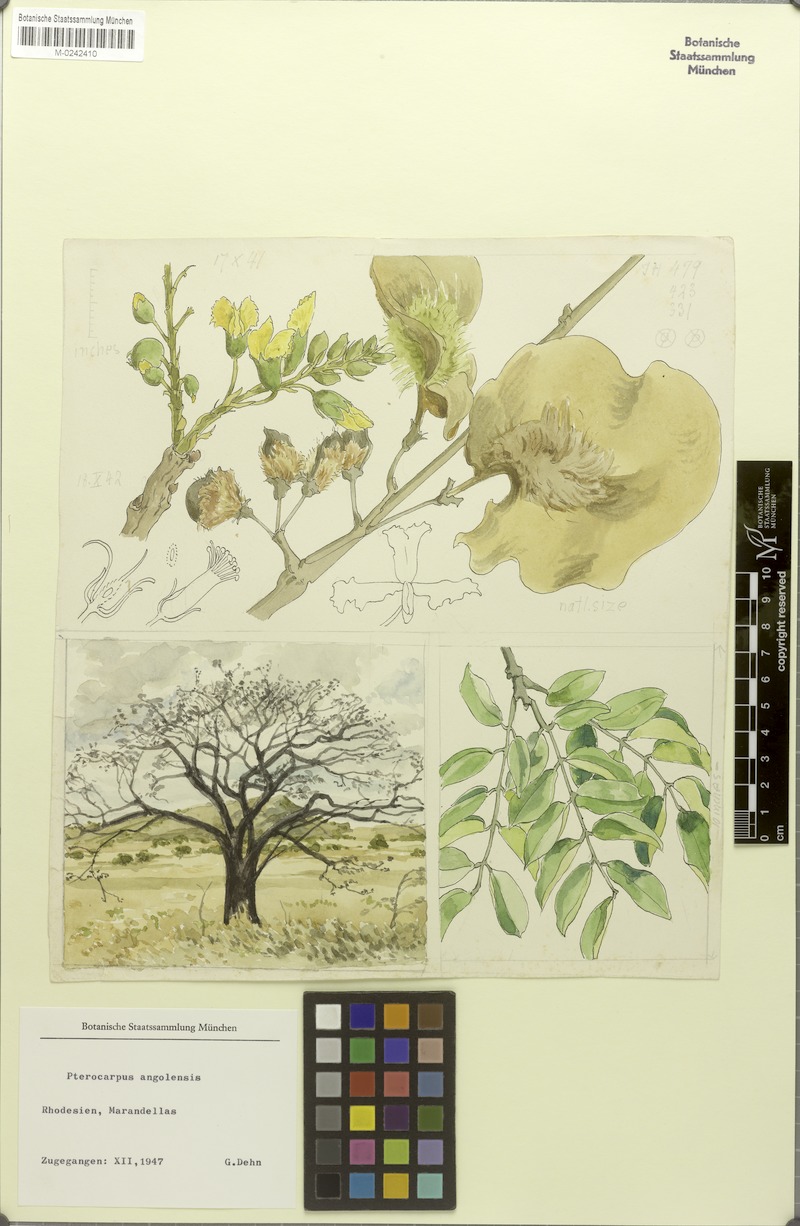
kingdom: Plantae
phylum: Tracheophyta
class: Magnoliopsida
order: Fabales
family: Fabaceae
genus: Pterocarpus
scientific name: Pterocarpus angolensis
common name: Bloodwood tree
